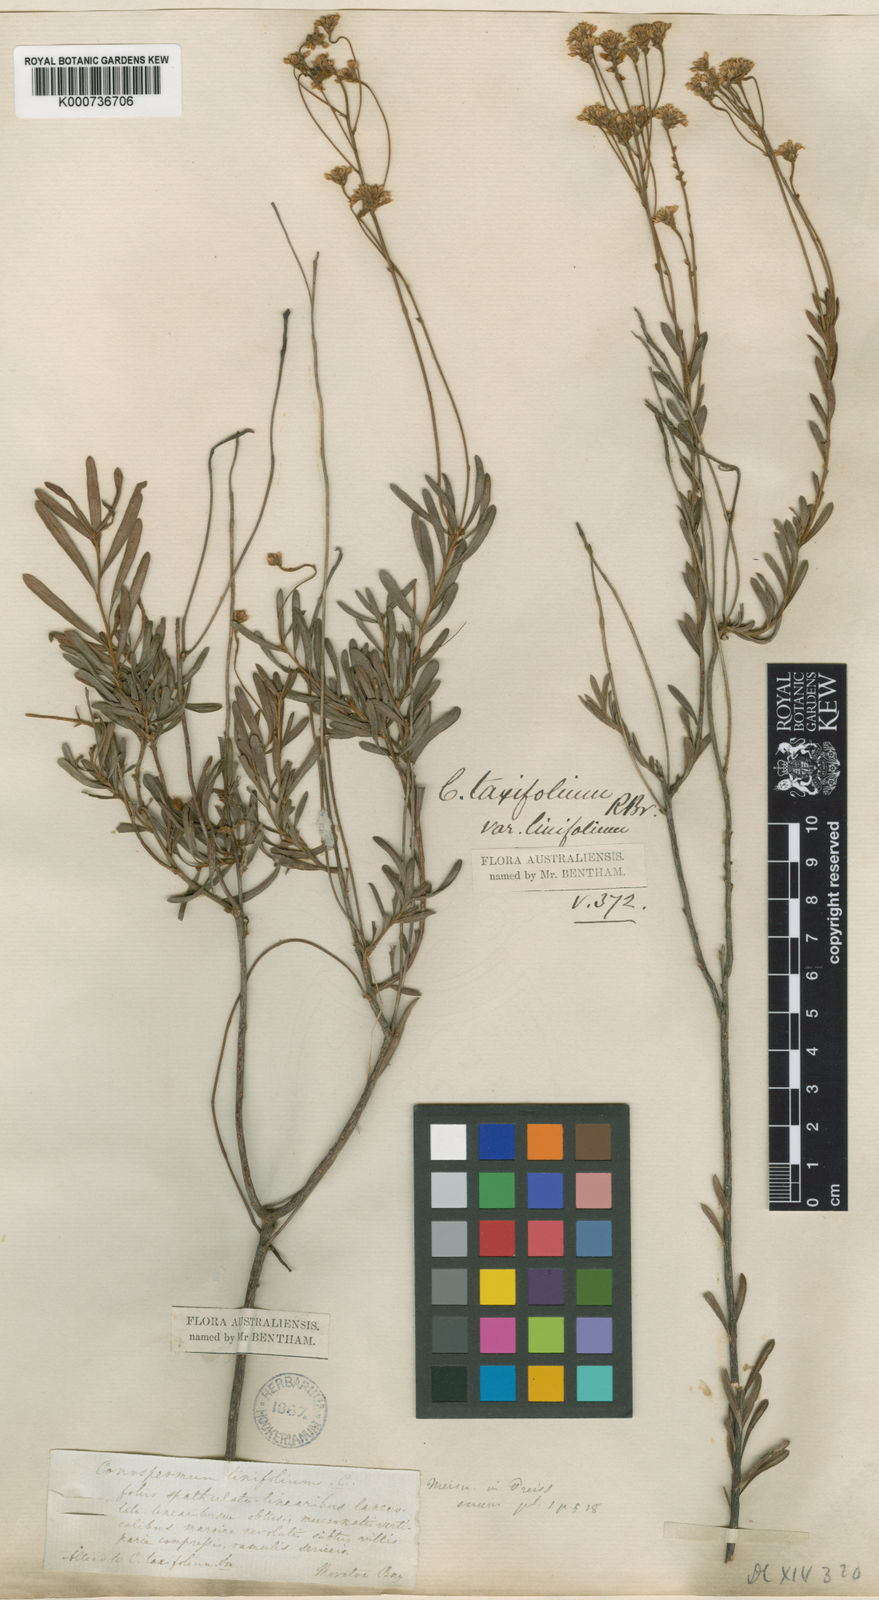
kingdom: Plantae
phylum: Tracheophyta
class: Magnoliopsida
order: Proteales
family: Proteaceae
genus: Conospermum
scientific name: Conospermum taxifolium
